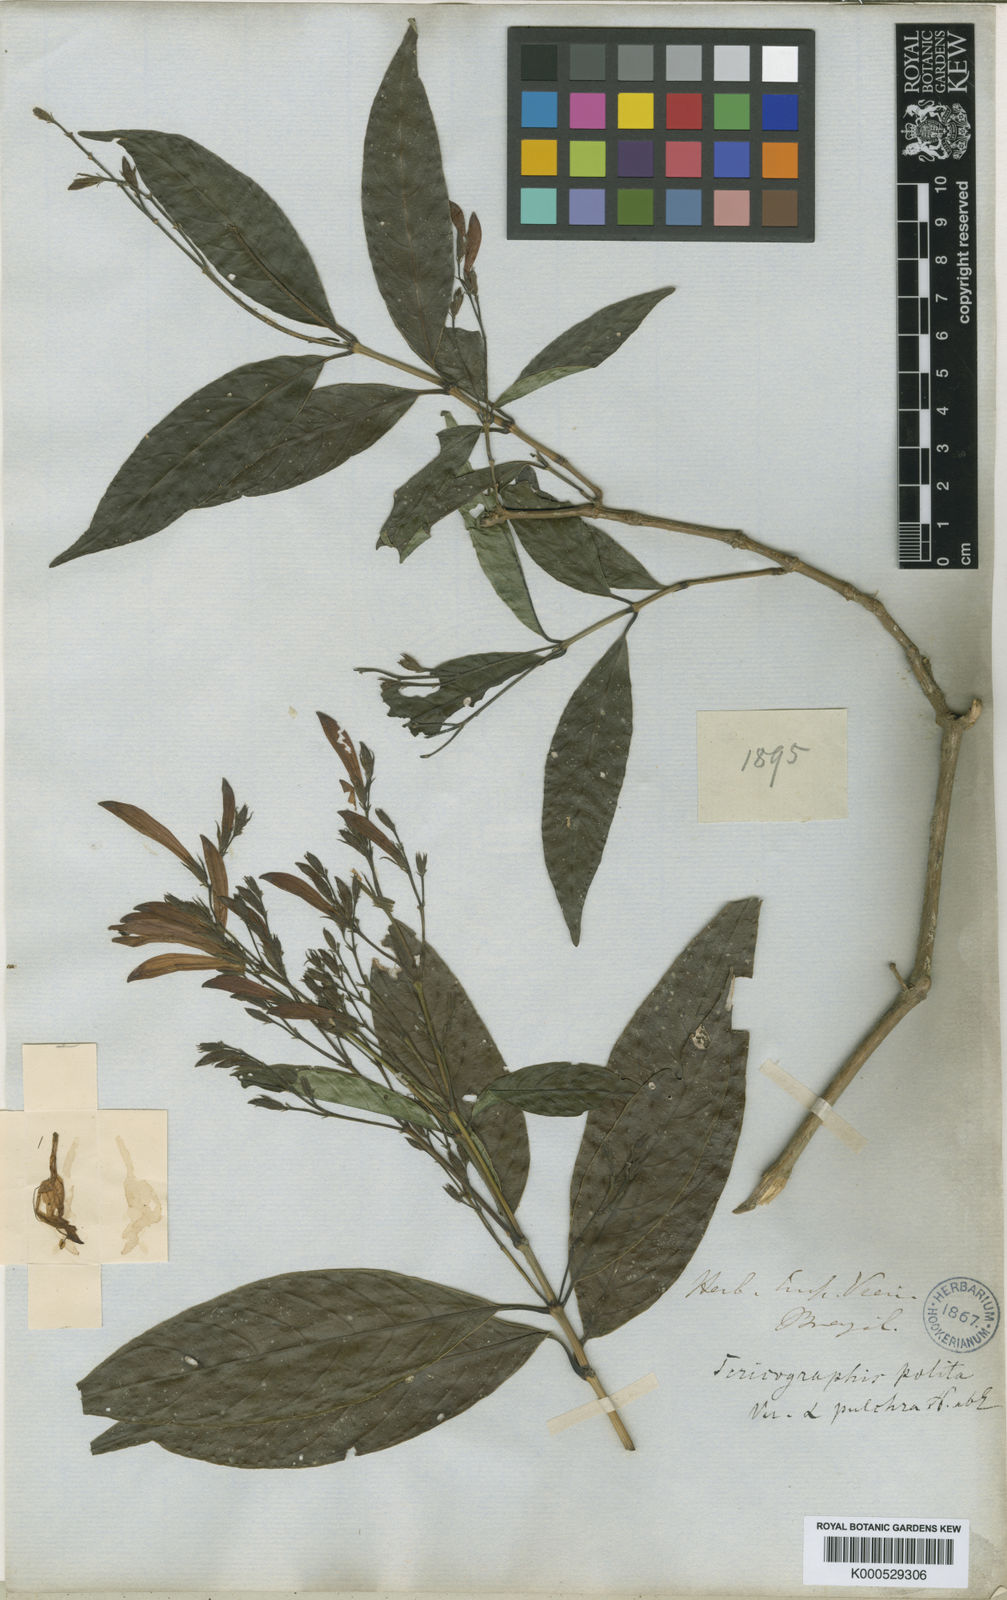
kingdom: Plantae
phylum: Tracheophyta
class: Magnoliopsida
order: Lamiales
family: Acanthaceae
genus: Justicia
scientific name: Justicia polita
